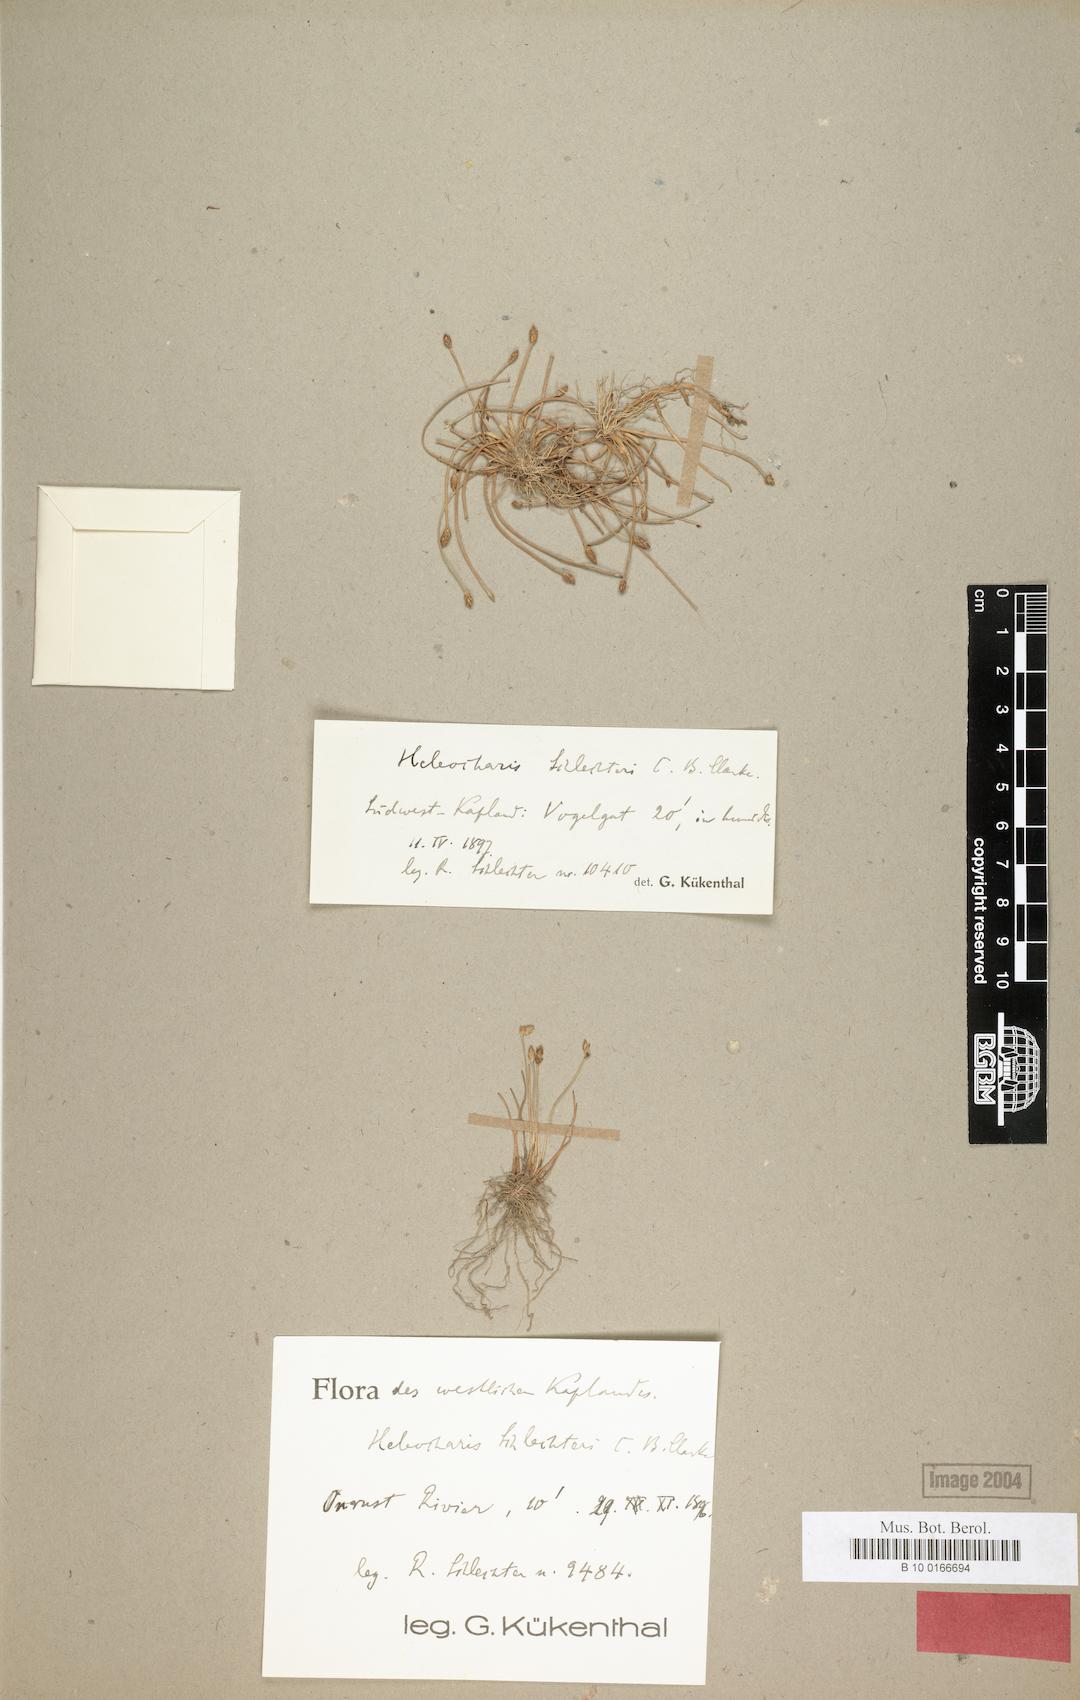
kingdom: Plantae
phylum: Tracheophyta
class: Liliopsida
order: Poales
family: Cyperaceae
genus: Eleocharis
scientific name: Eleocharis schlechteri
